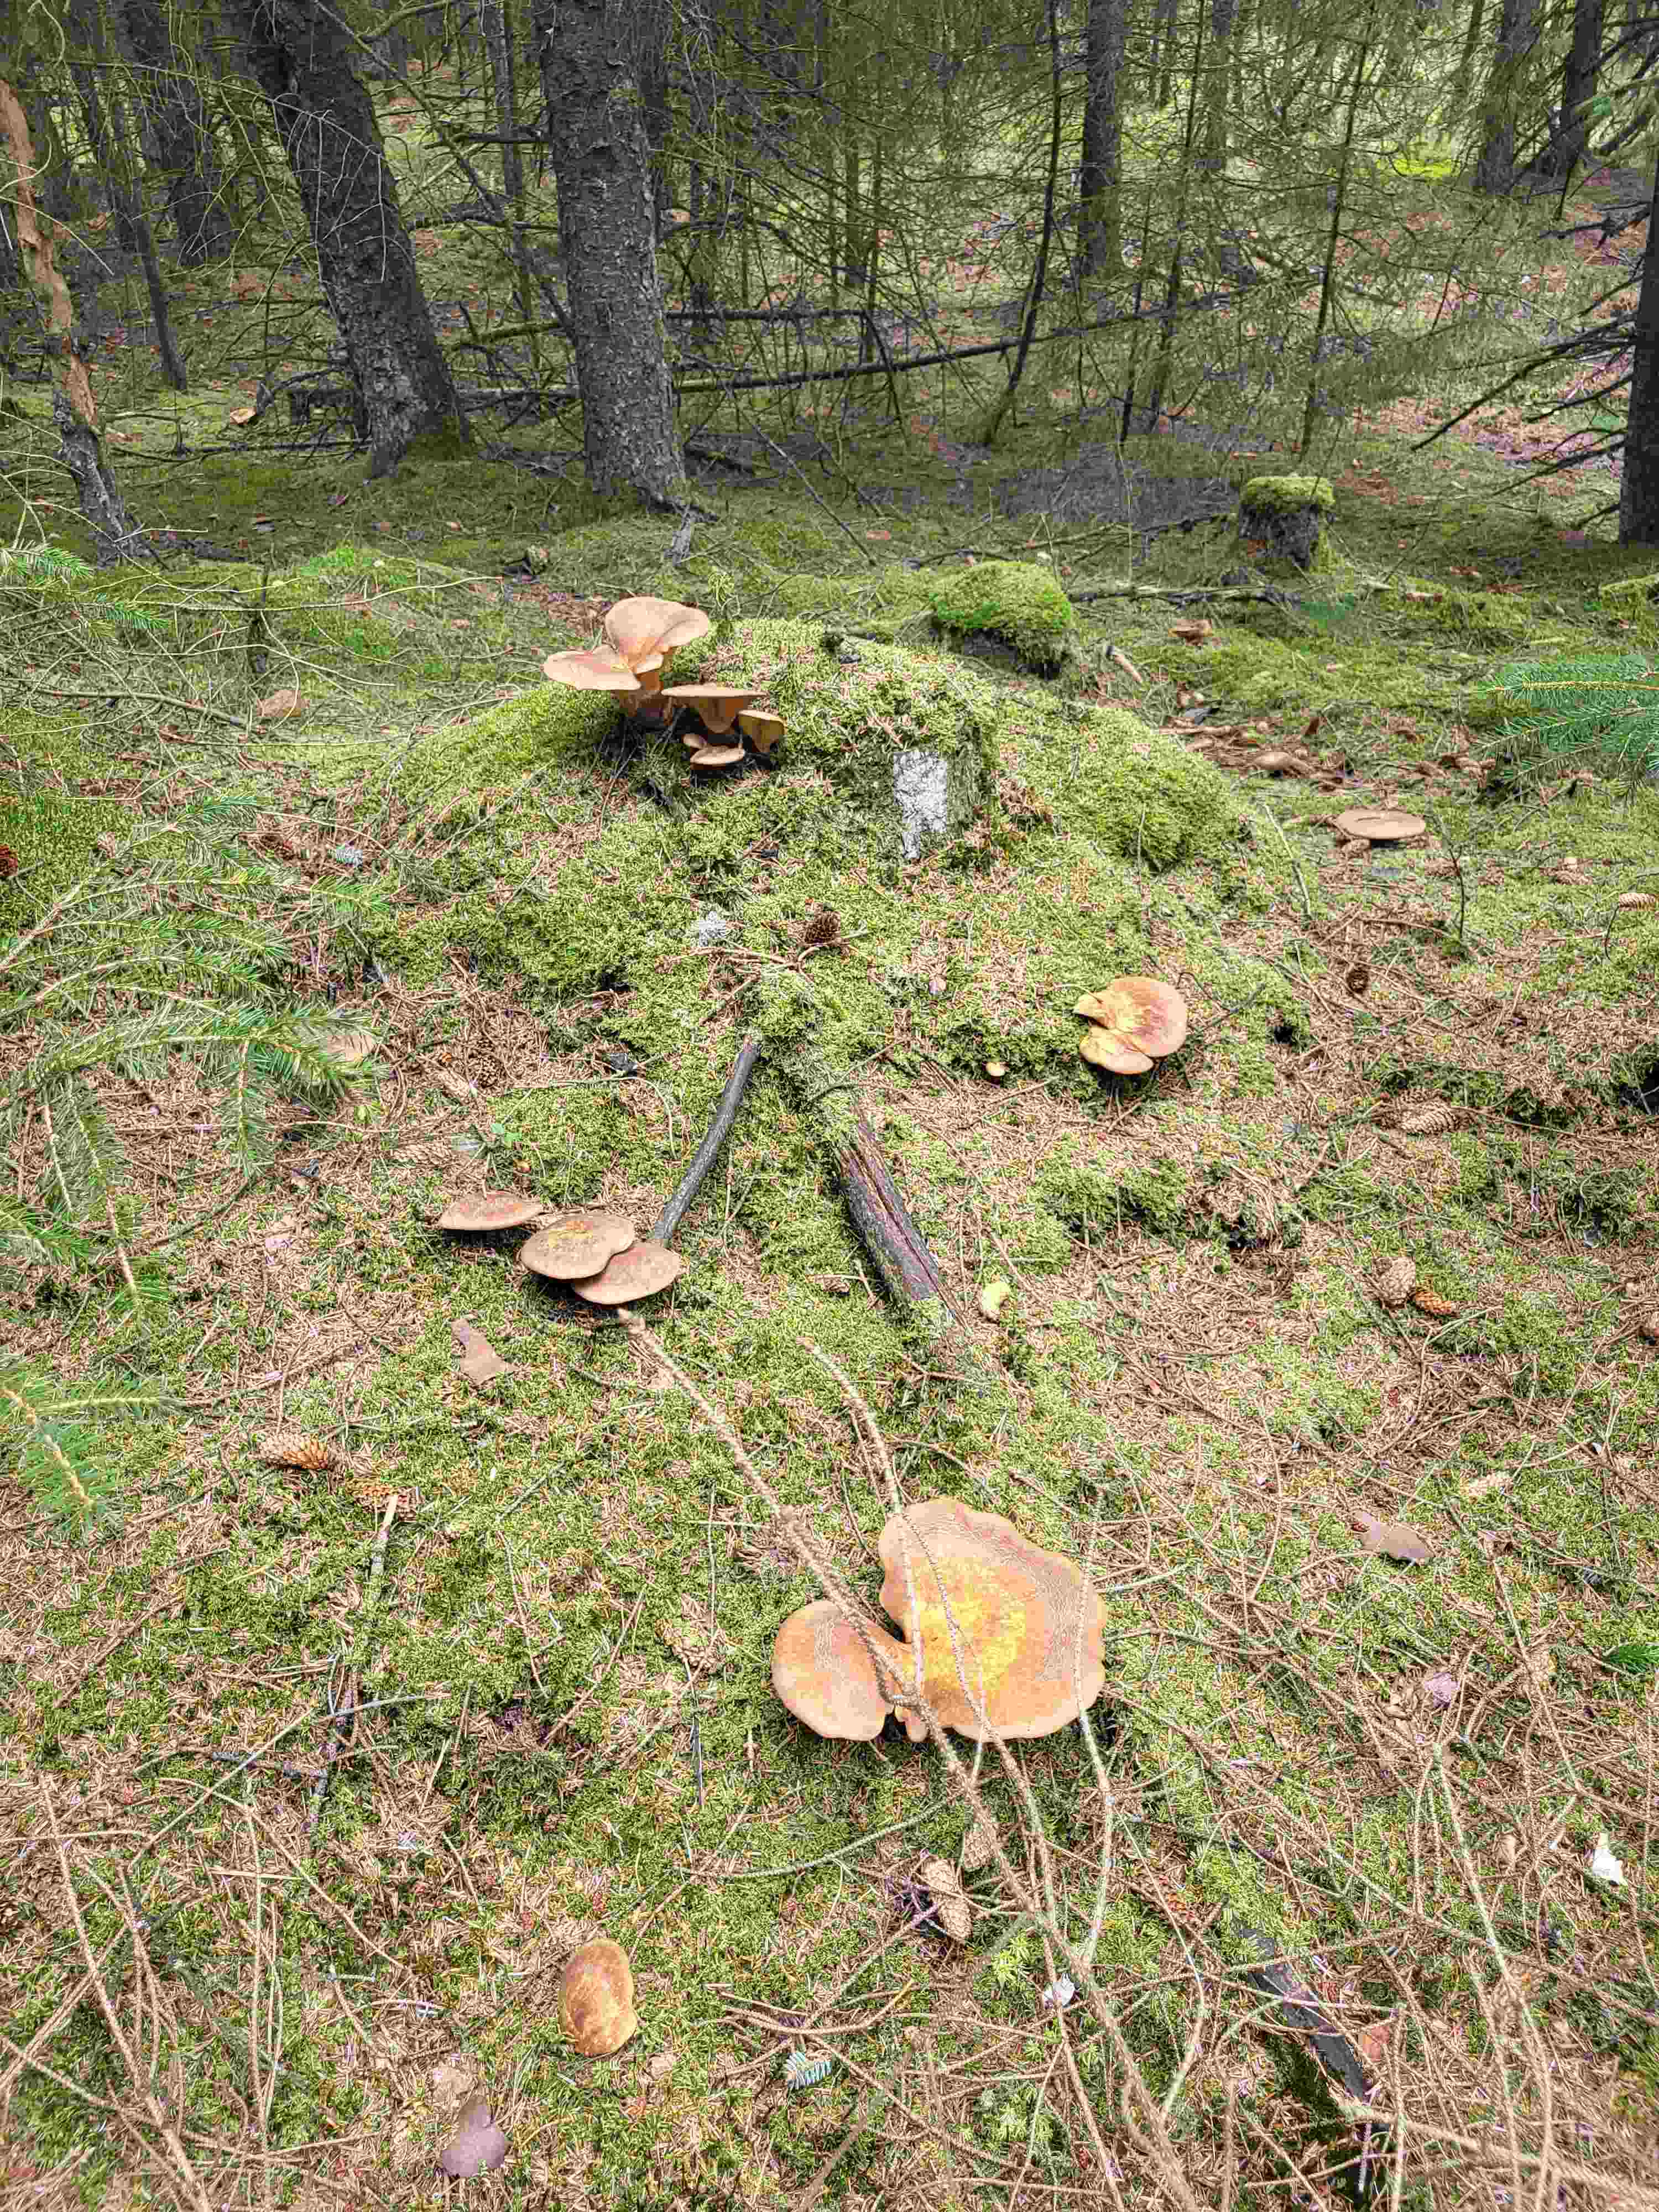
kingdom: Fungi
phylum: Basidiomycota
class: Agaricomycetes
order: Boletales
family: Tapinellaceae
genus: Tapinella
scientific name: Tapinella atrotomentosa
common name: sortfiltet viftesvamp
